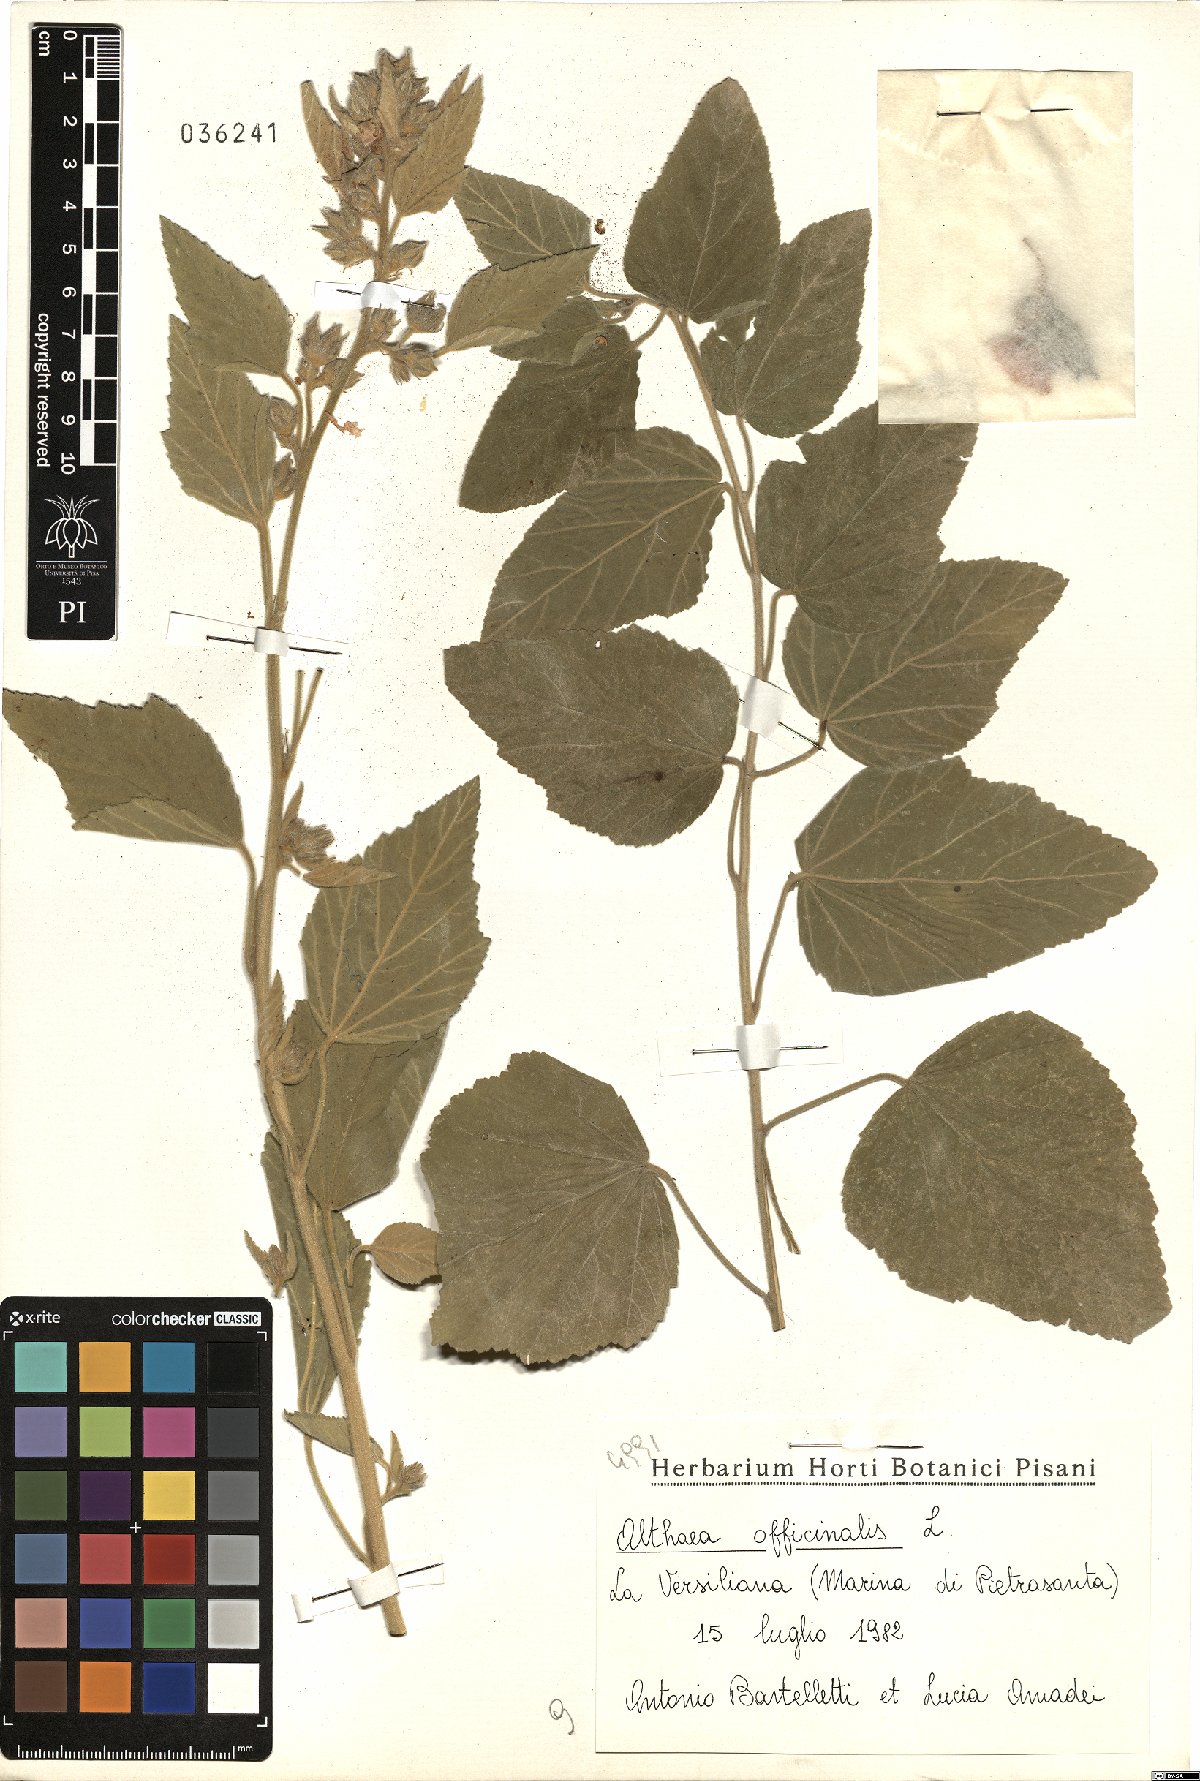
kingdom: Plantae
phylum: Tracheophyta
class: Magnoliopsida
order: Malvales
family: Malvaceae
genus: Althaea
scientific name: Althaea officinalis
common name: Marsh-mallow
